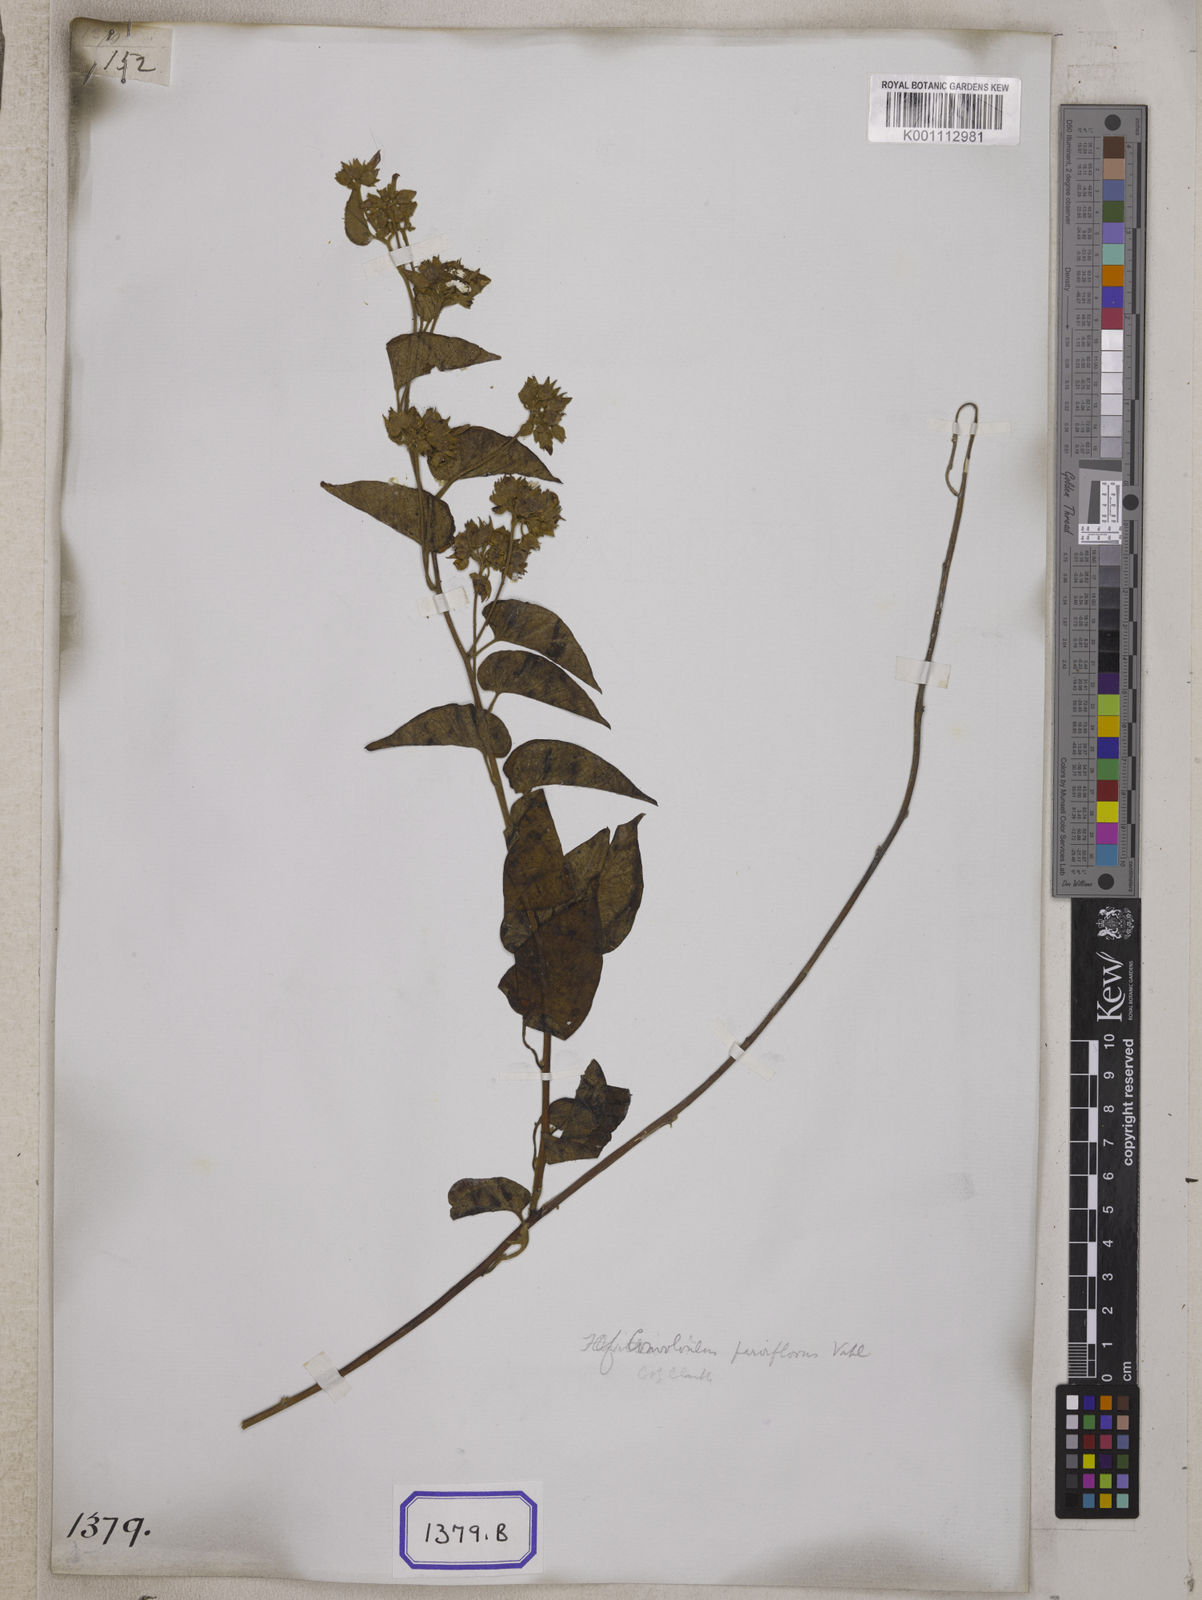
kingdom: Plantae
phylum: Tracheophyta
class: Magnoliopsida
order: Solanales
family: Convolvulaceae
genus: Convolvulus
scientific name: Convolvulus
